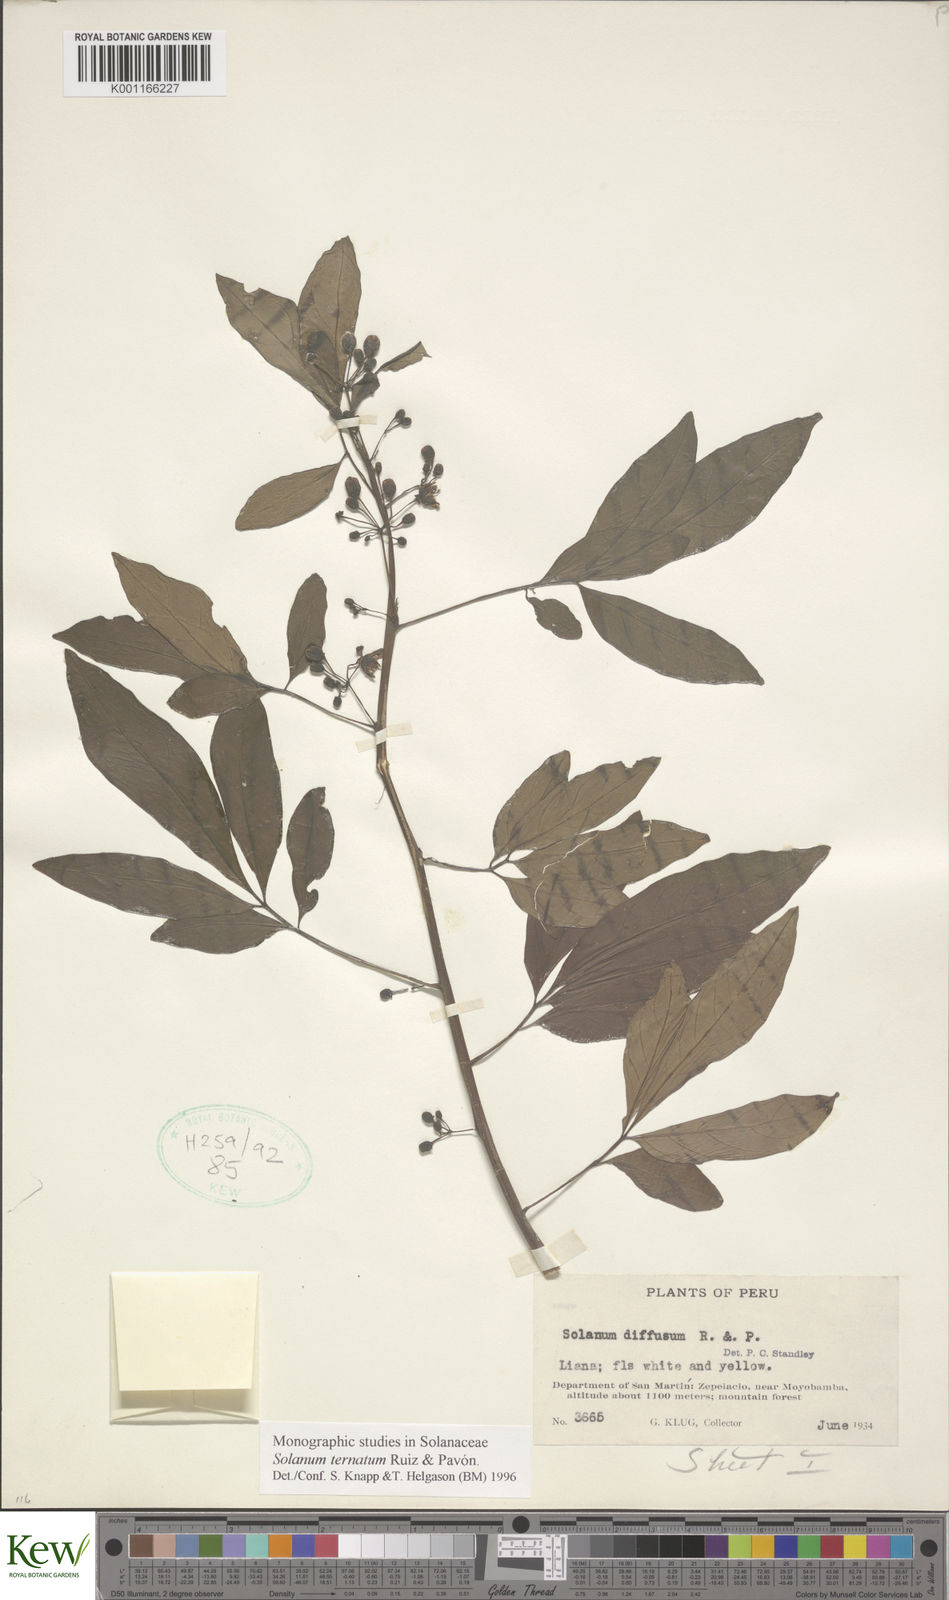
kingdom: Plantae
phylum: Tracheophyta
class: Magnoliopsida
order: Solanales
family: Solanaceae
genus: Solanum
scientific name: Solanum ternatum
